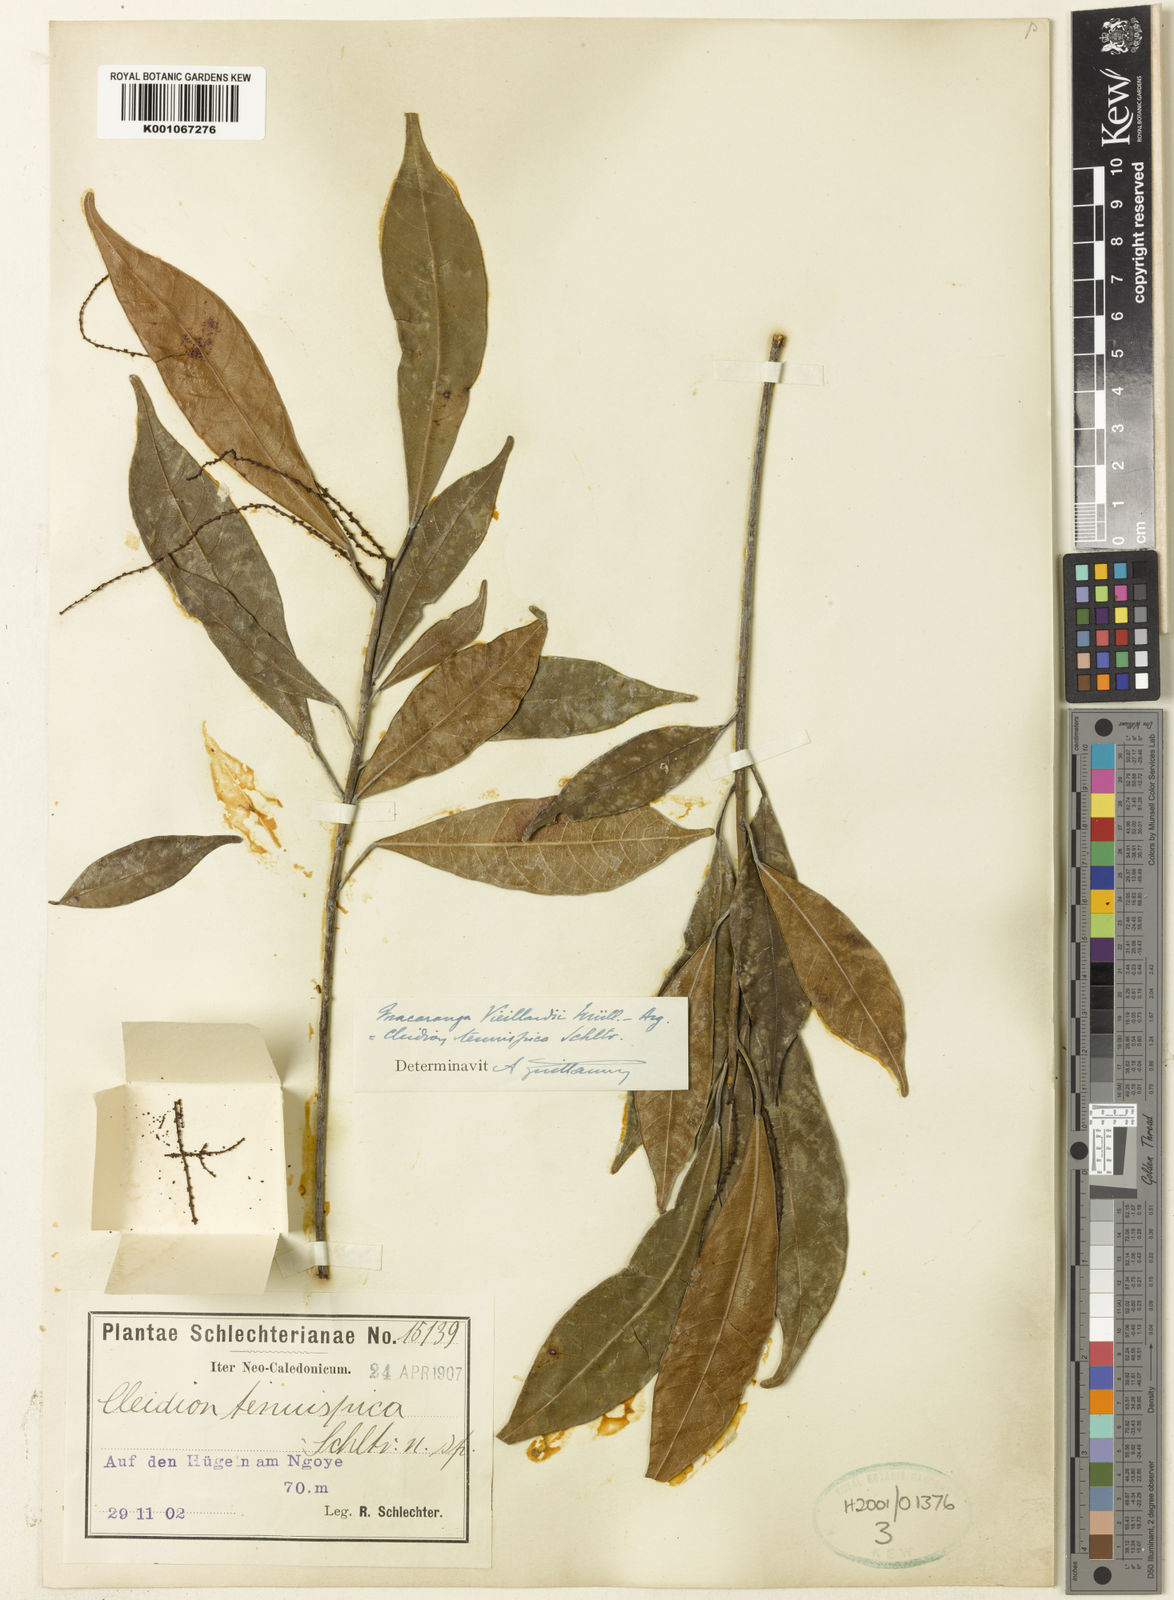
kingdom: Plantae
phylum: Tracheophyta
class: Magnoliopsida
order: Malpighiales
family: Euphorbiaceae
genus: Macaranga
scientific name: Macaranga
